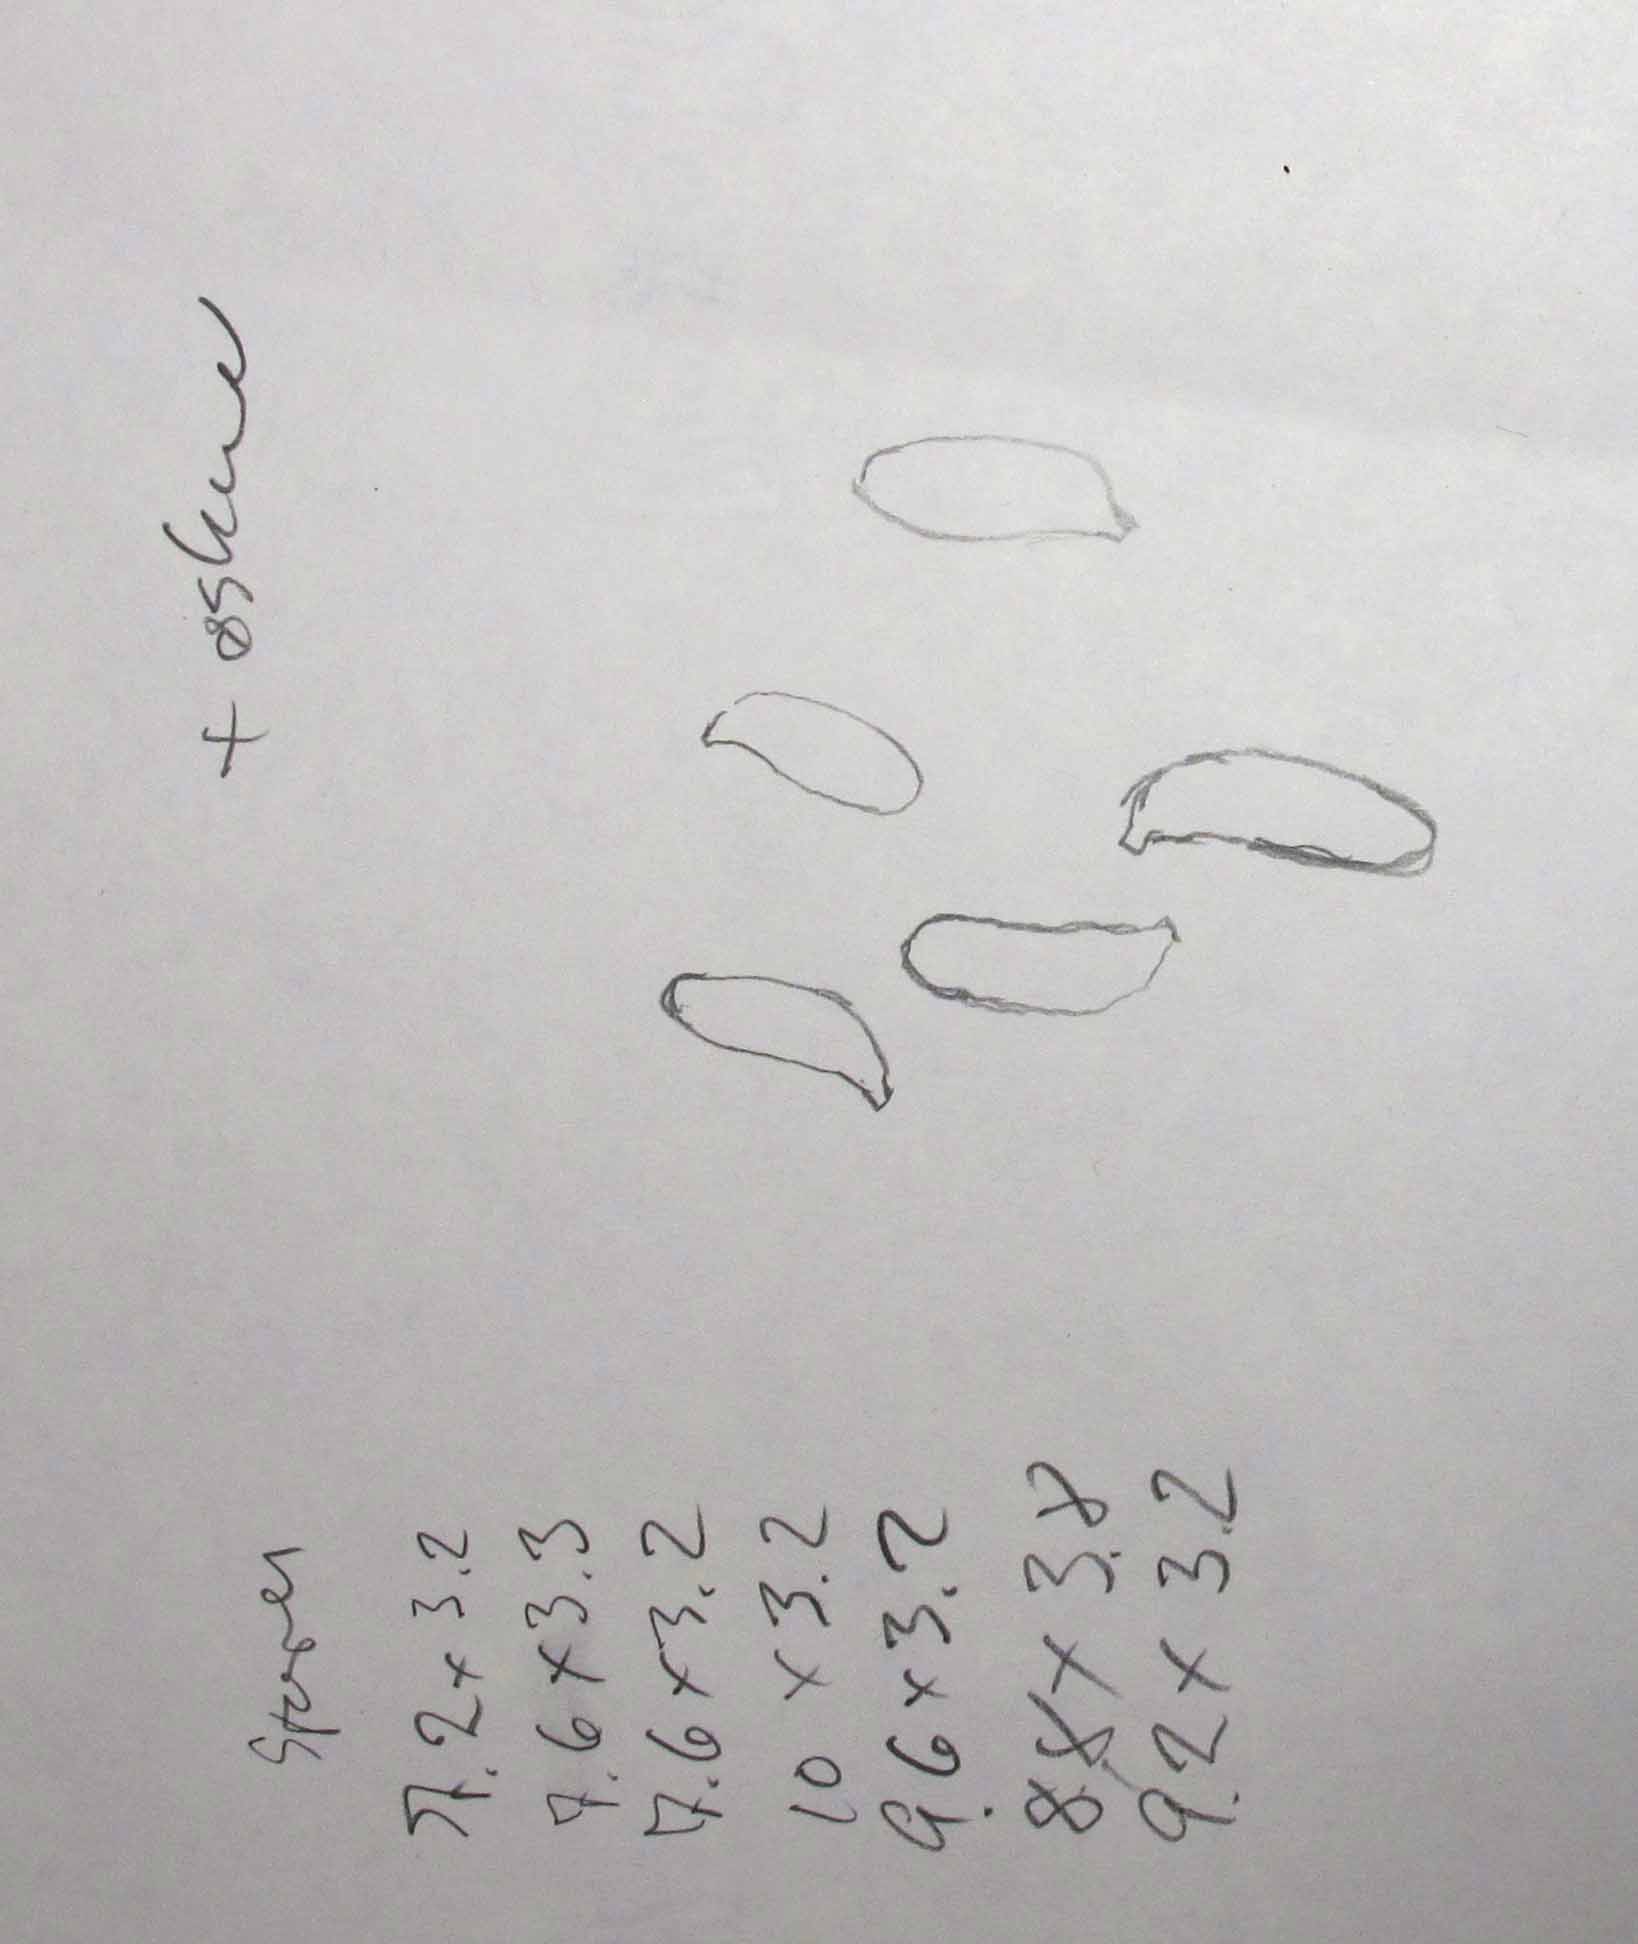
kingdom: Fungi
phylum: Basidiomycota
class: Agaricomycetes
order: Polyporales
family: Fomitopsidaceae
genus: Brunneoporus
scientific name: Brunneoporus kuzyanus
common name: brunlig sejporesvamp
